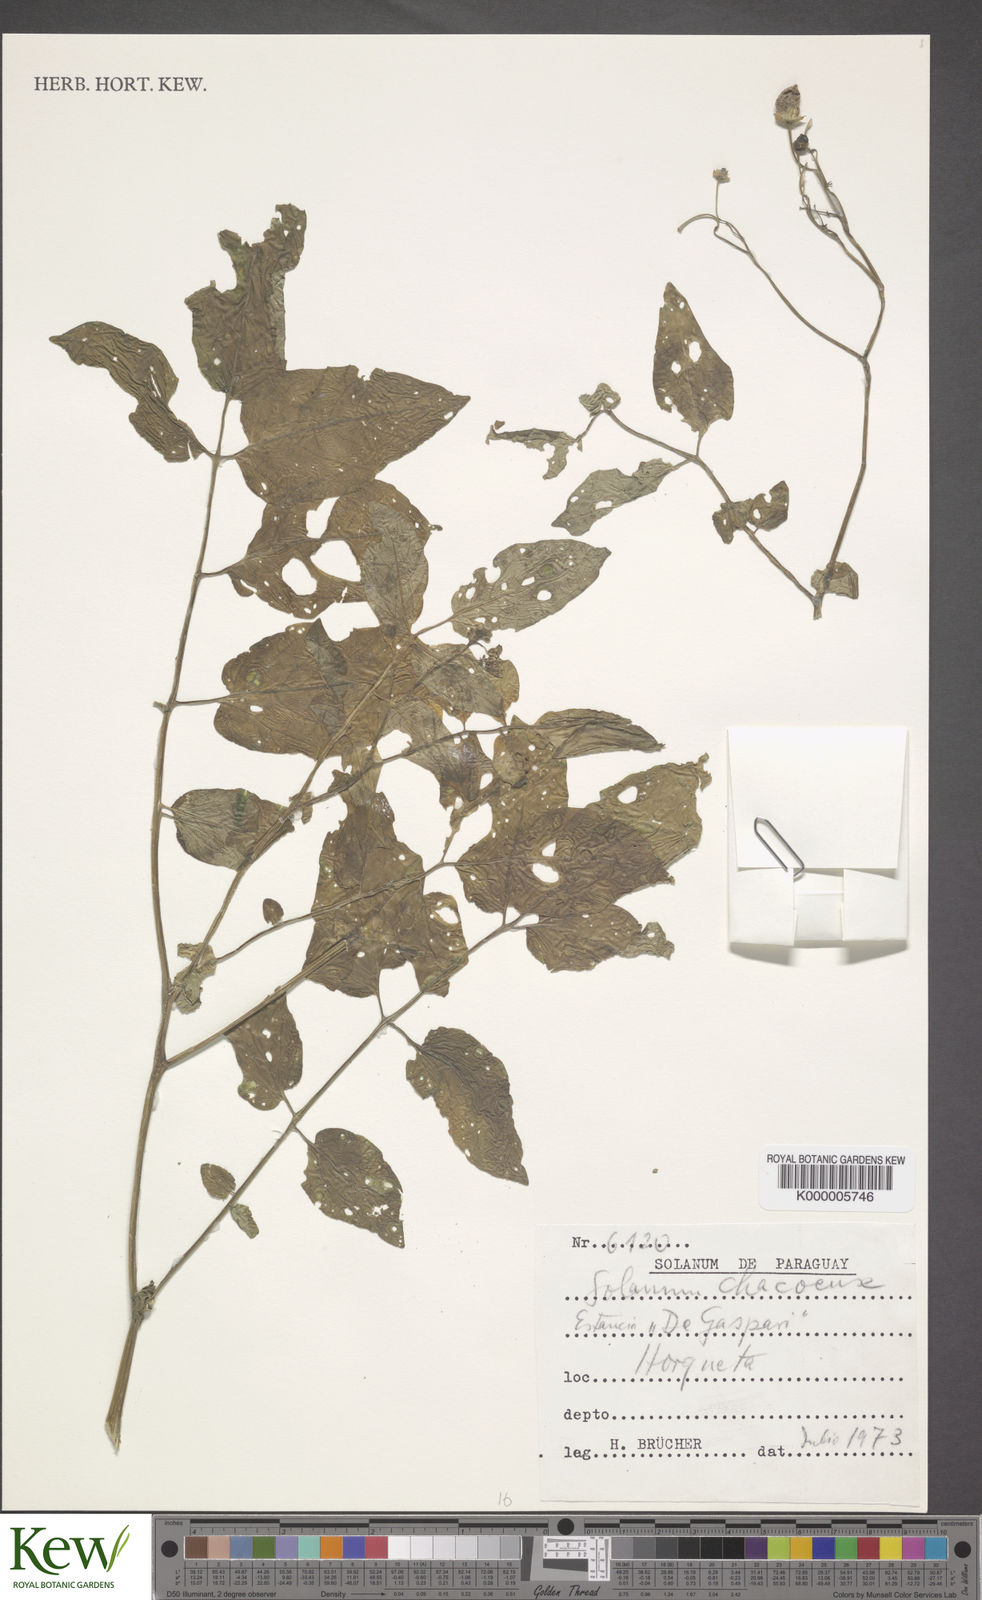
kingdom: Plantae
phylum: Tracheophyta
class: Magnoliopsida
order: Solanales
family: Solanaceae
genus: Solanum
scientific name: Solanum chacoense
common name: Chaco potato
